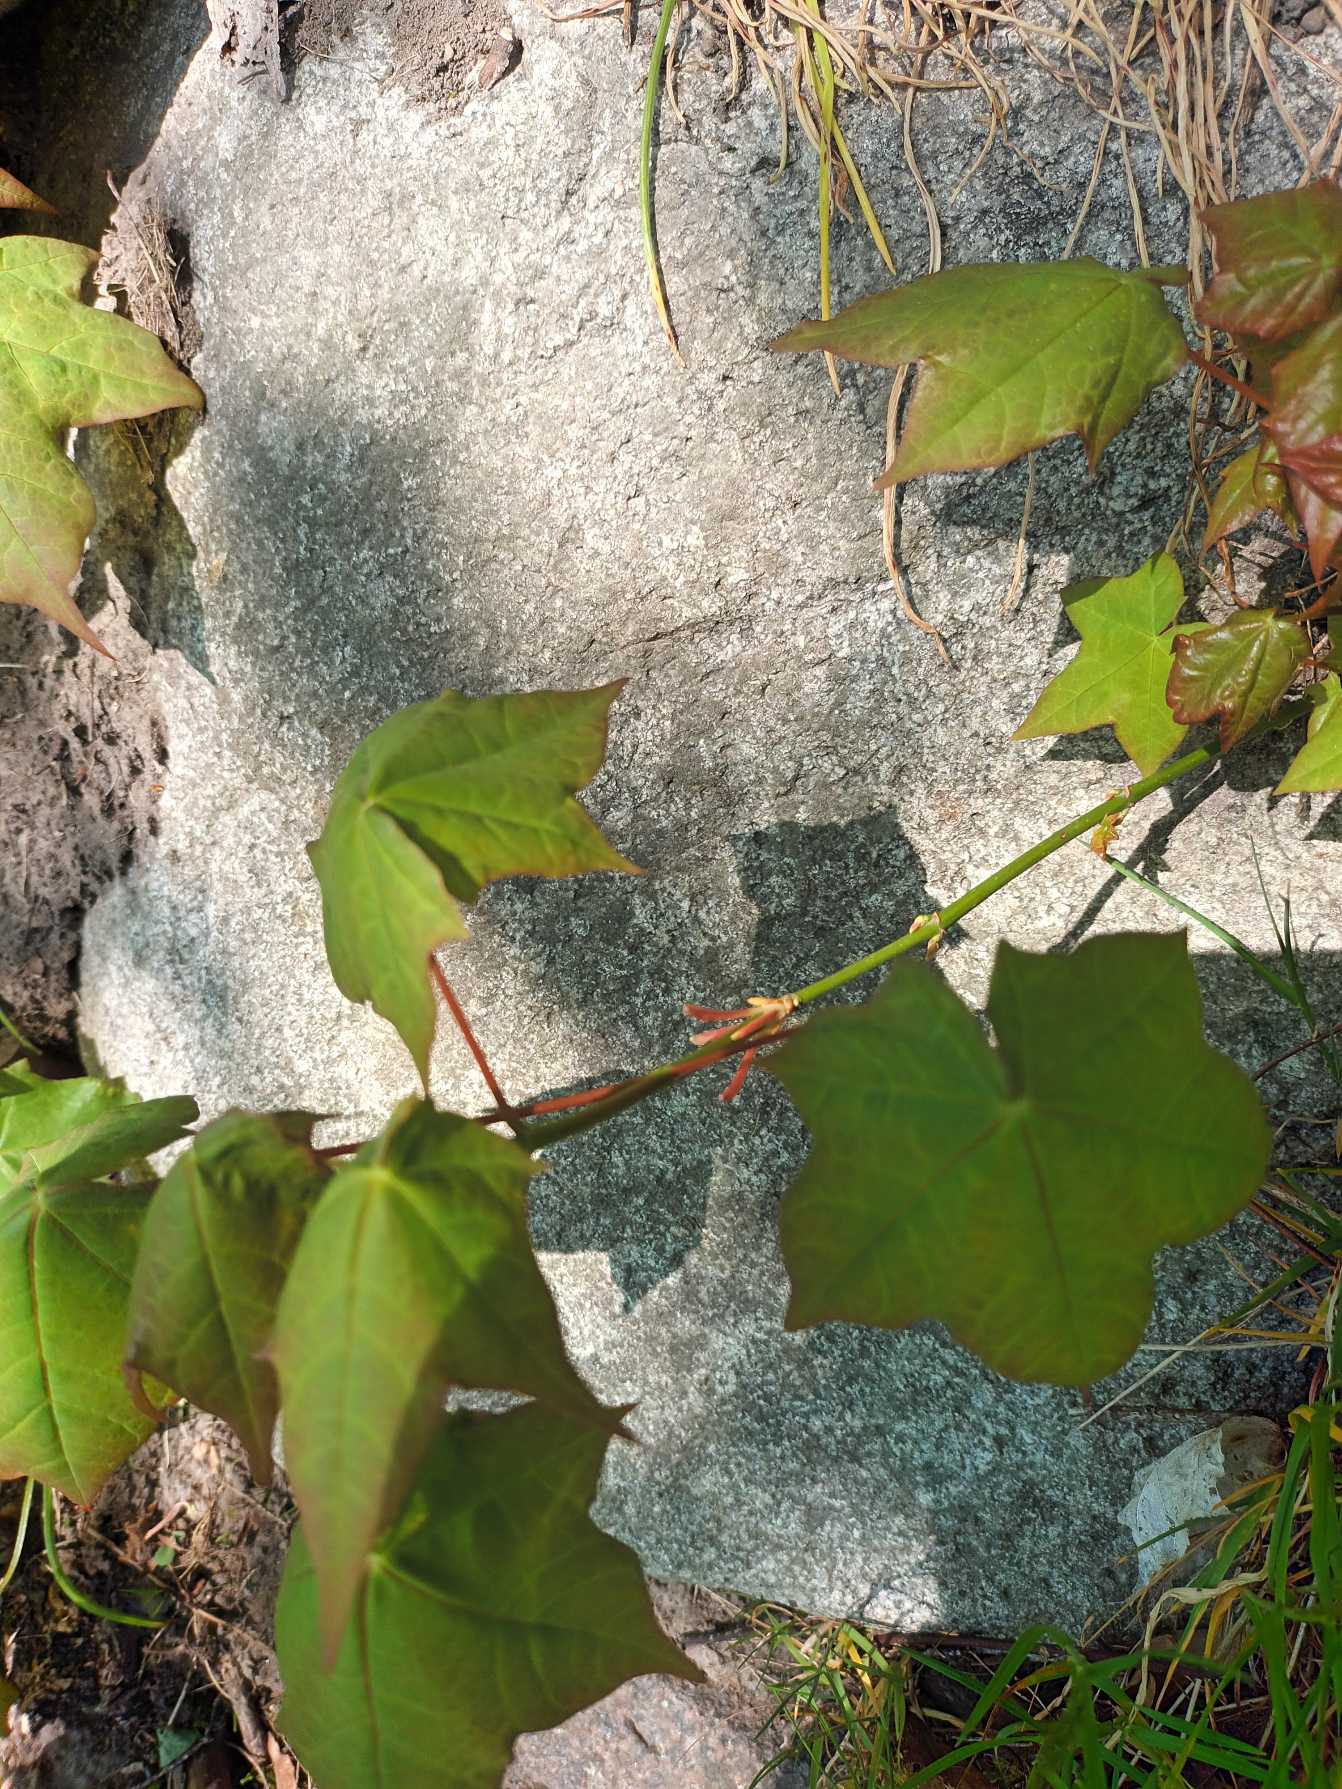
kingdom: Plantae
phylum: Tracheophyta
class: Magnoliopsida
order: Sapindales
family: Sapindaceae
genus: Acer
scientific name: Acer cappadocicum
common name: Tyrkisk løn
